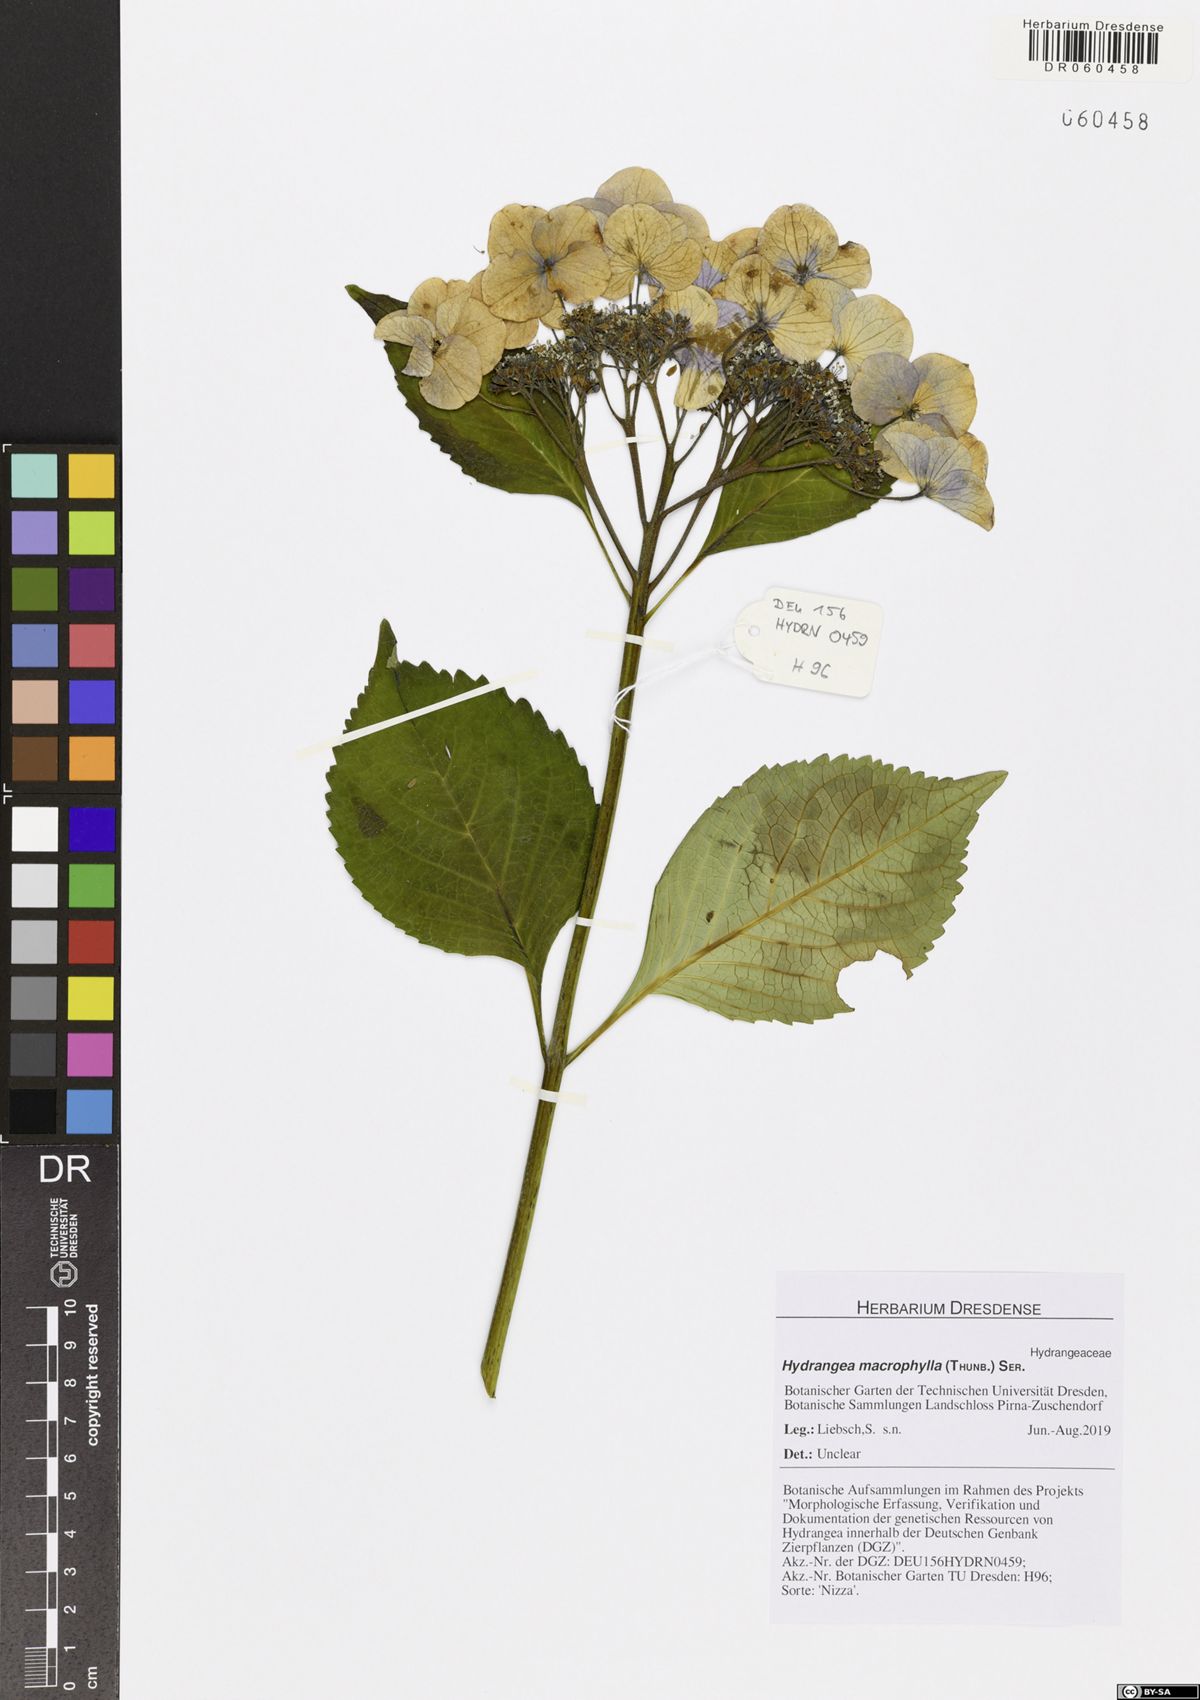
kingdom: Plantae
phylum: Tracheophyta
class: Magnoliopsida
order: Cornales
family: Hydrangeaceae
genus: Hydrangea
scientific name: Hydrangea macrophylla
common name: Hydrangea
